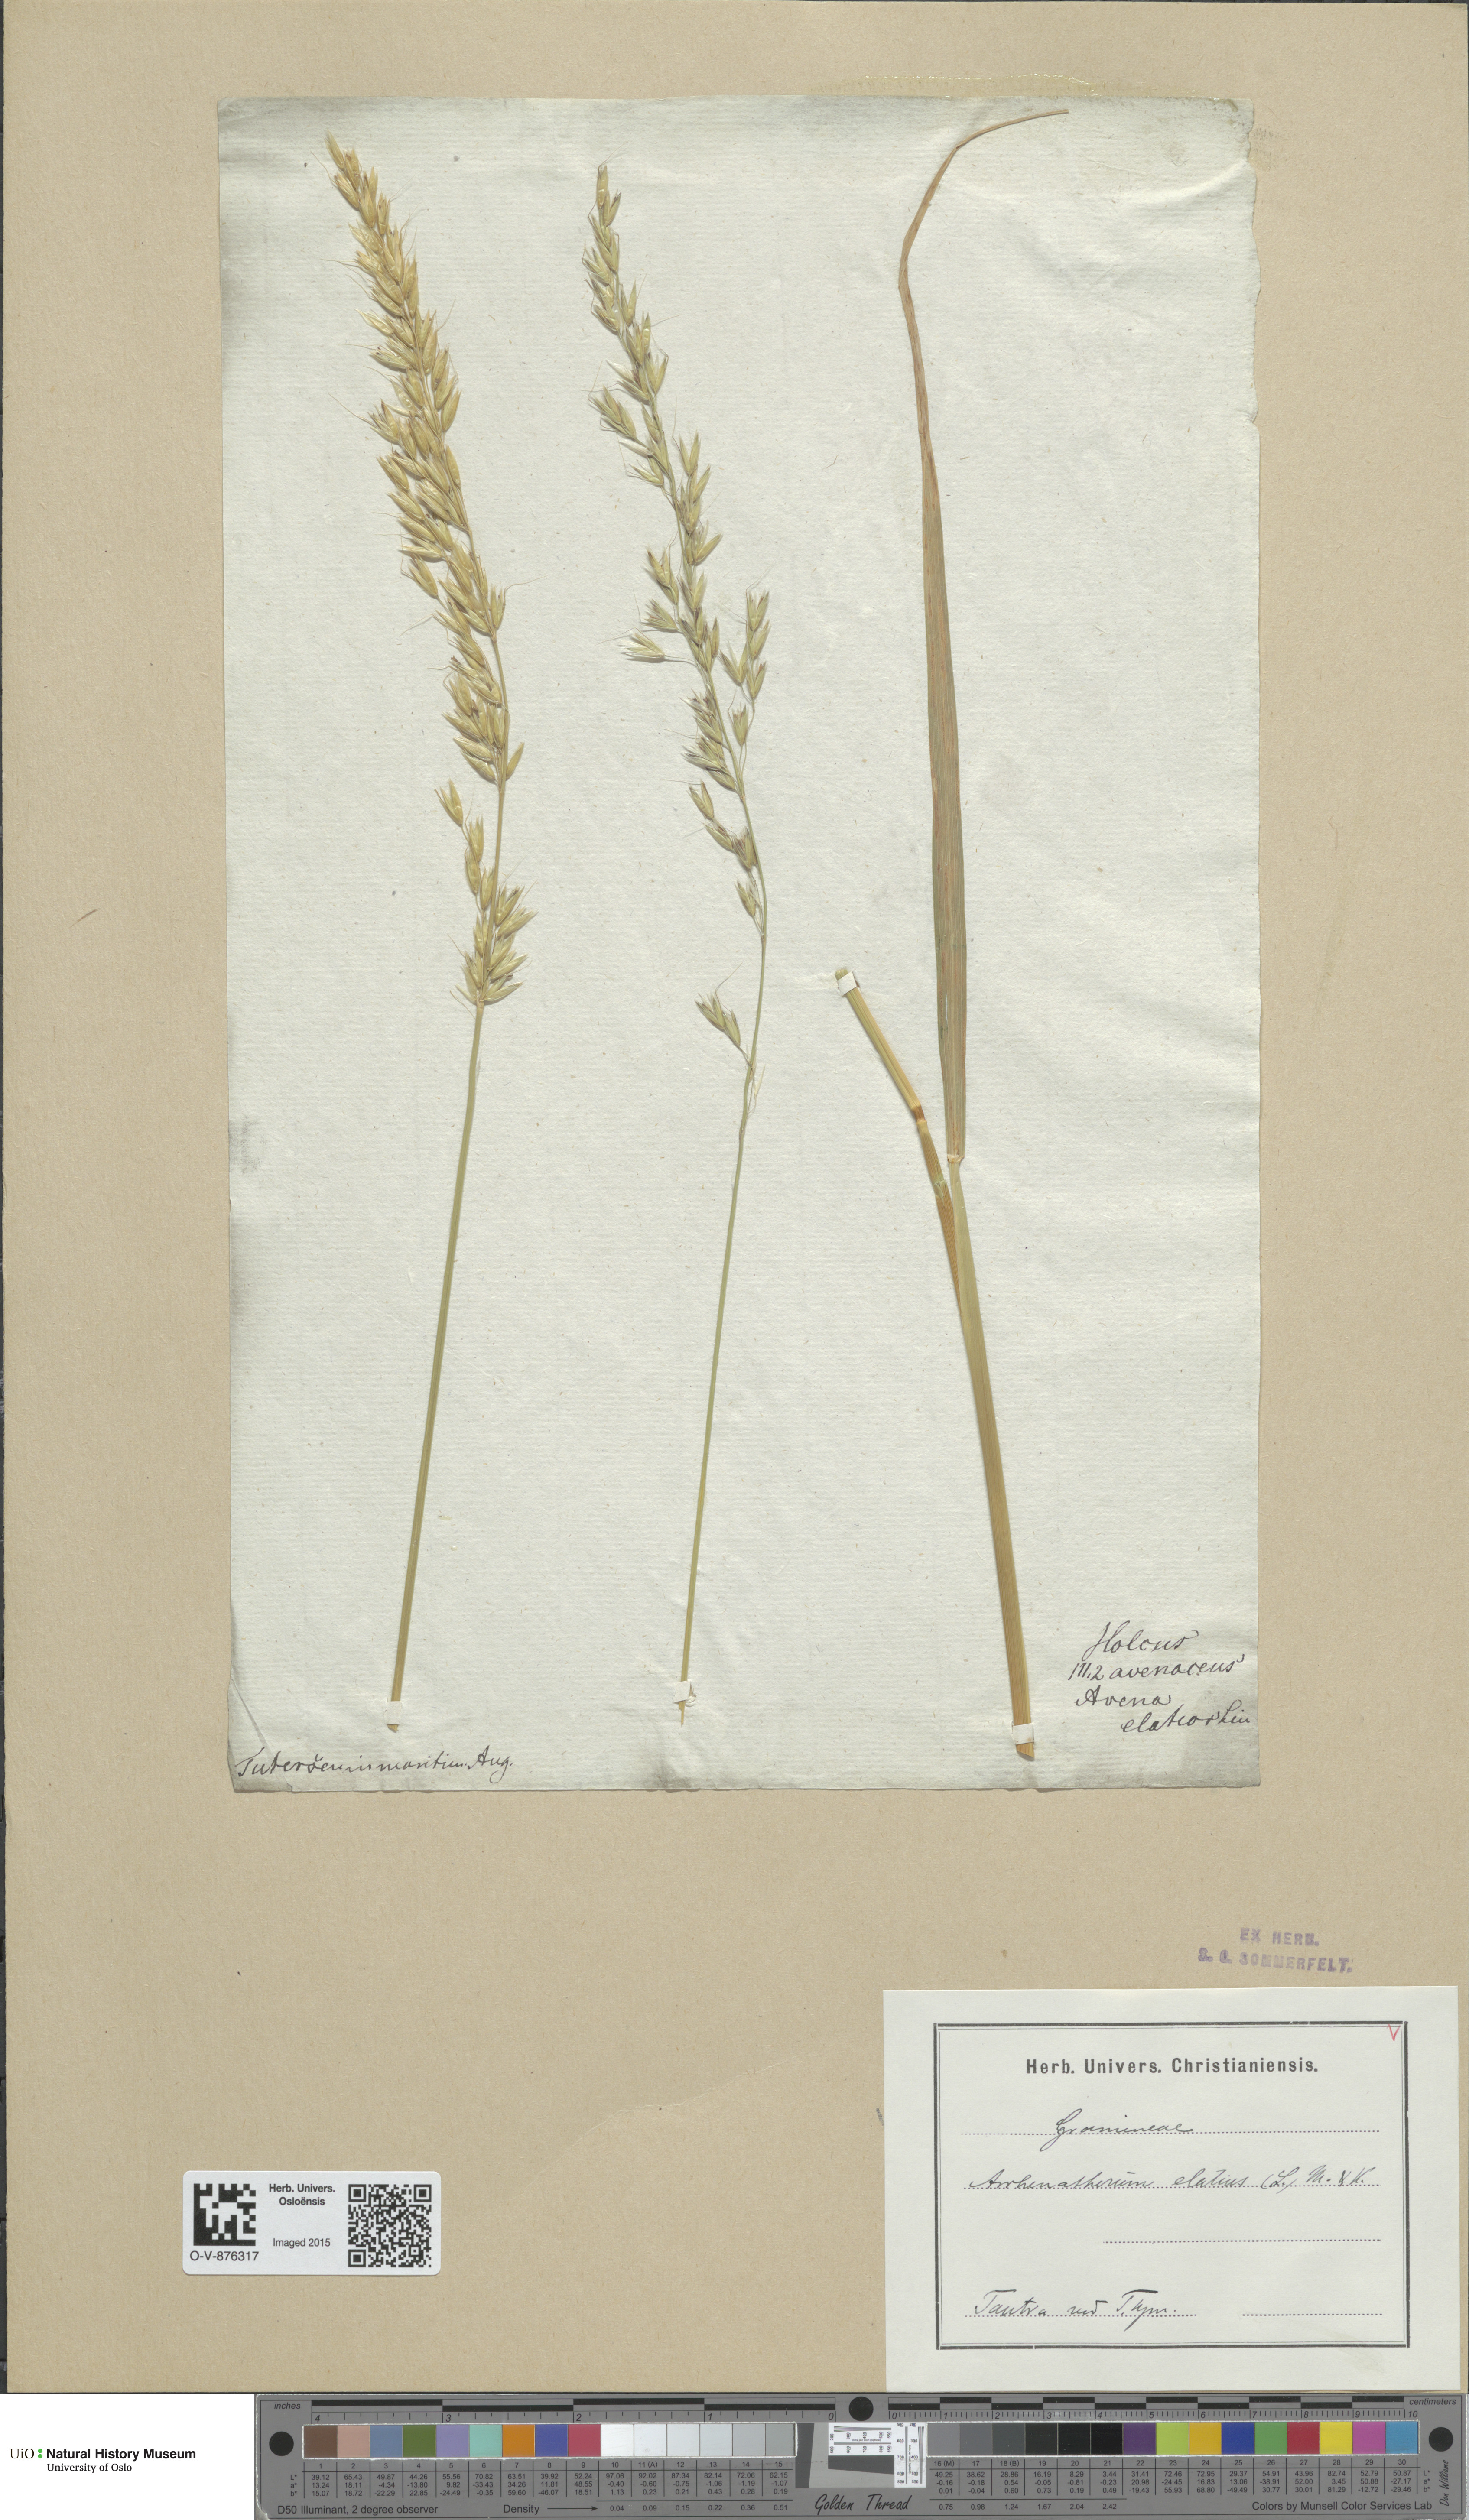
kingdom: Plantae
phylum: Tracheophyta
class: Liliopsida
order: Poales
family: Poaceae
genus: Arrhenatherum
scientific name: Arrhenatherum elatius
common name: Tall oatgrass
